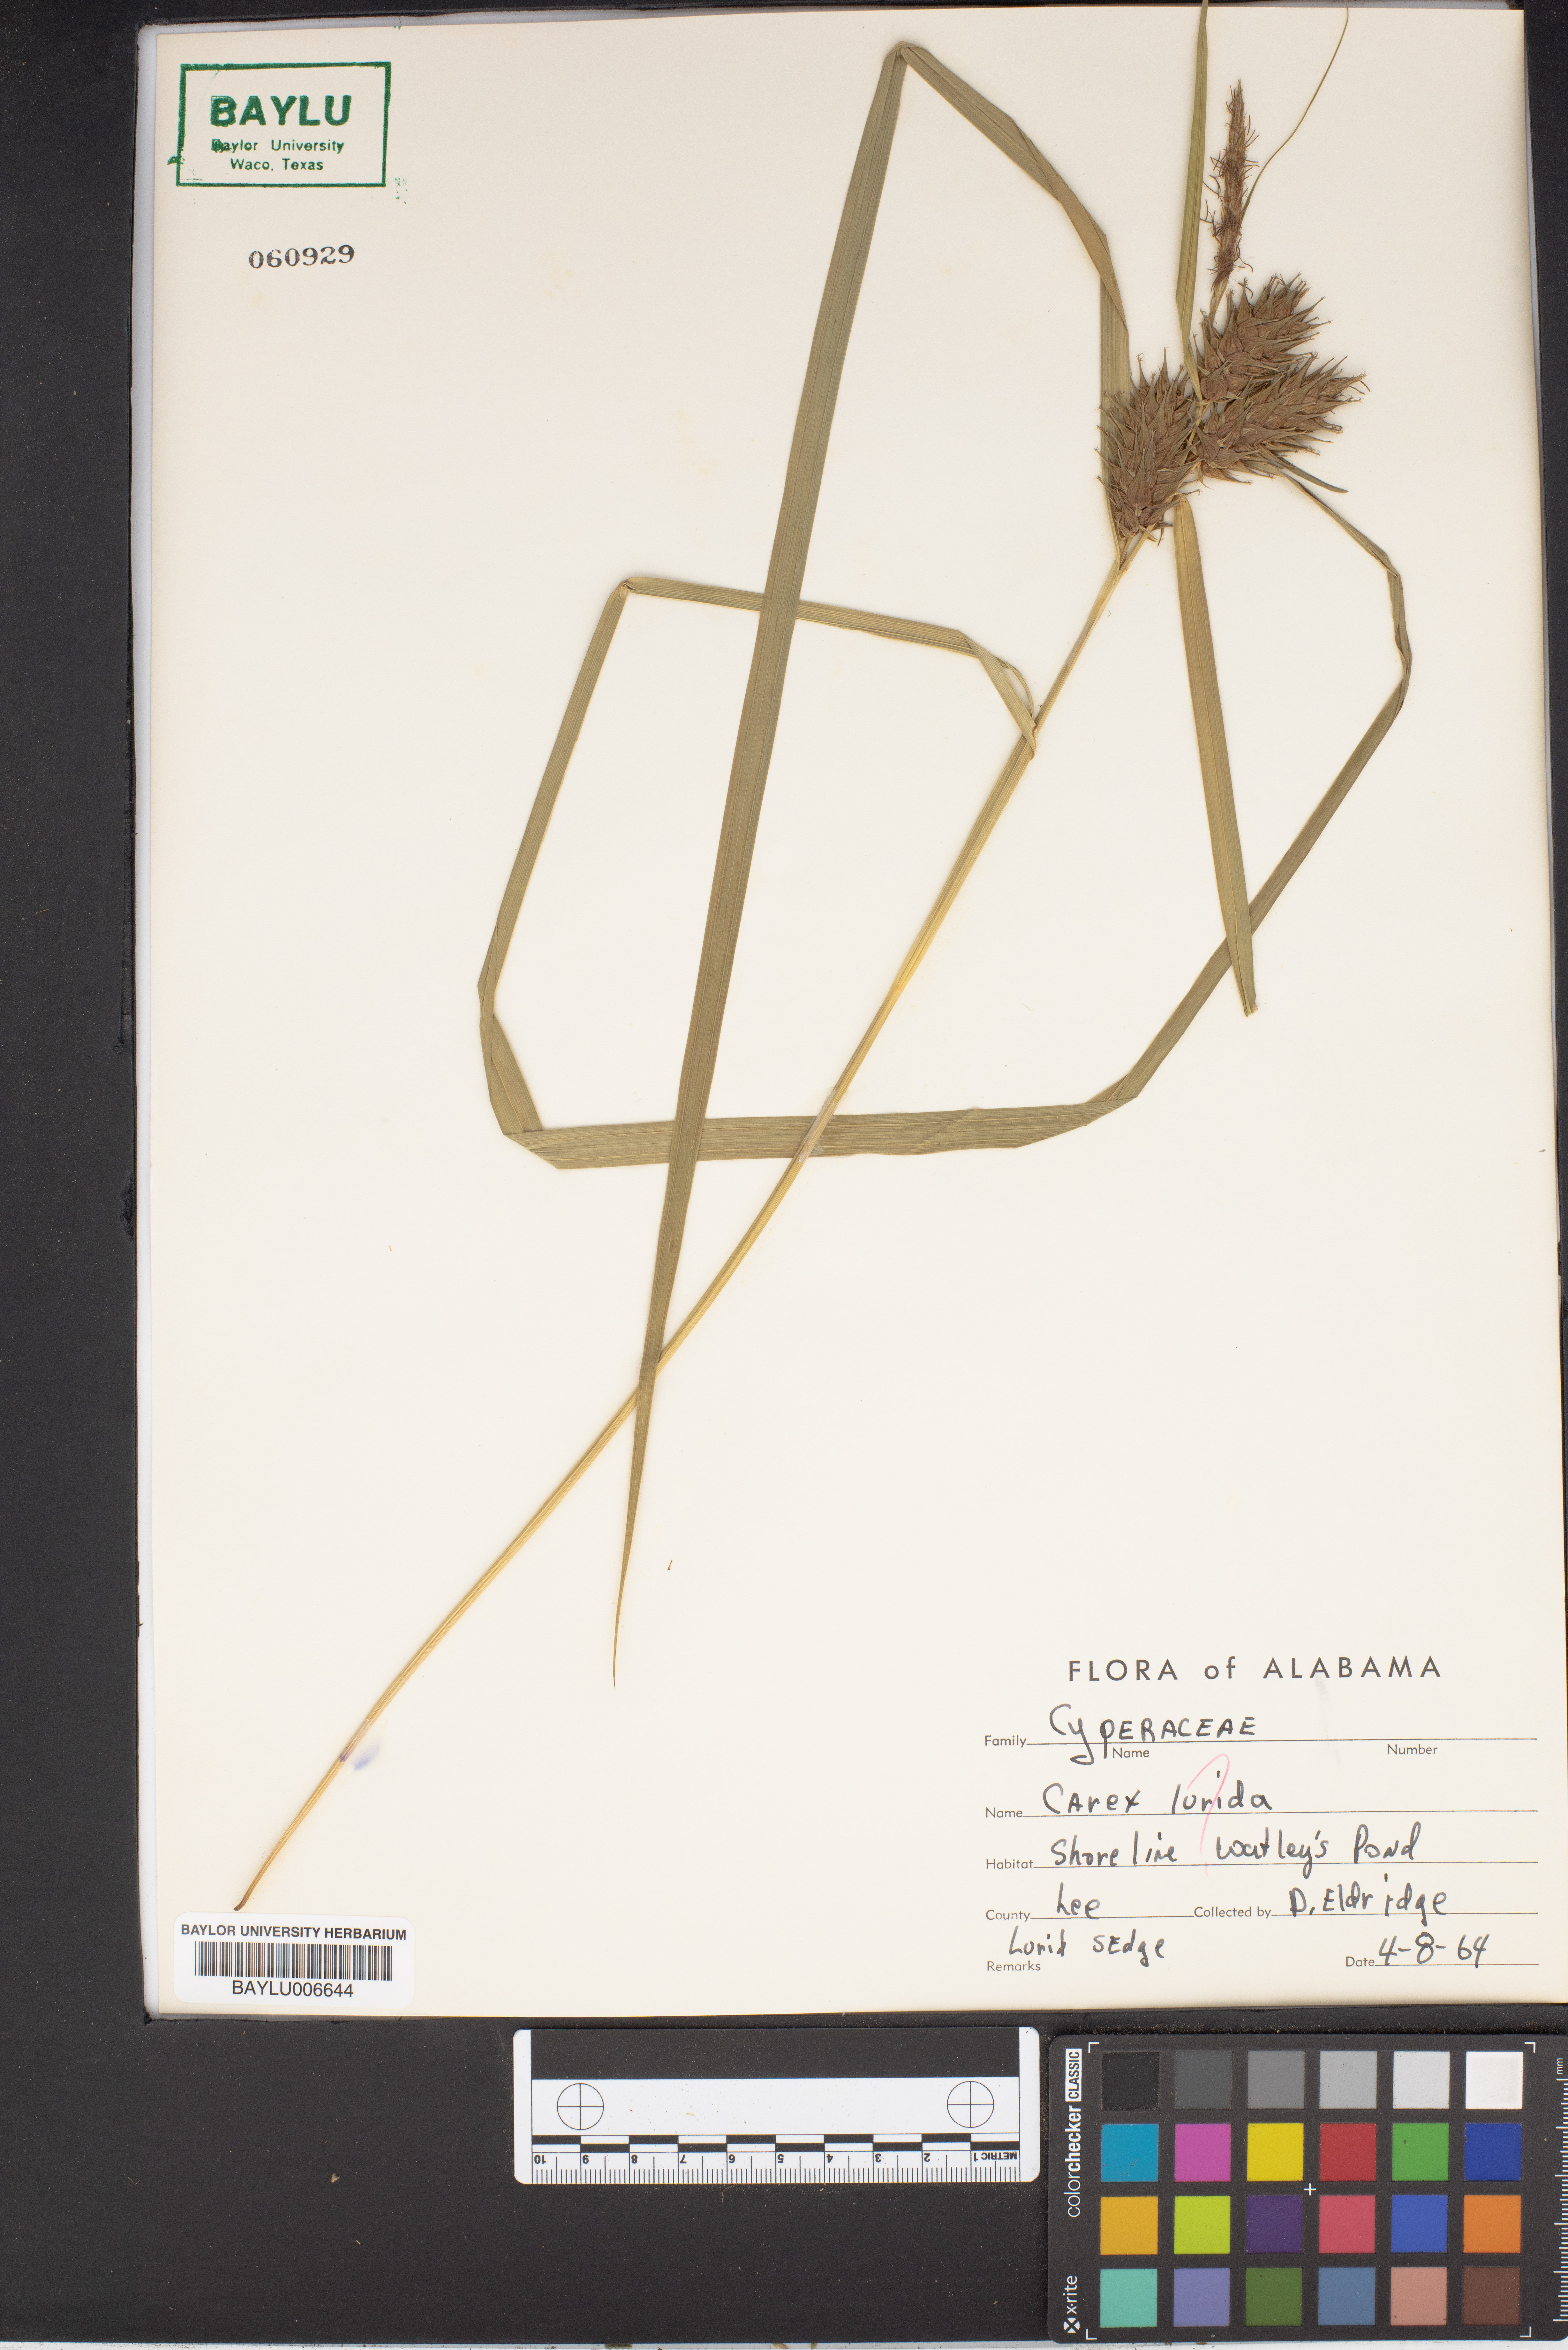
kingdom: Plantae
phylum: Tracheophyta
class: Liliopsida
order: Poales
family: Cyperaceae
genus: Carex
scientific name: Carex floridana
